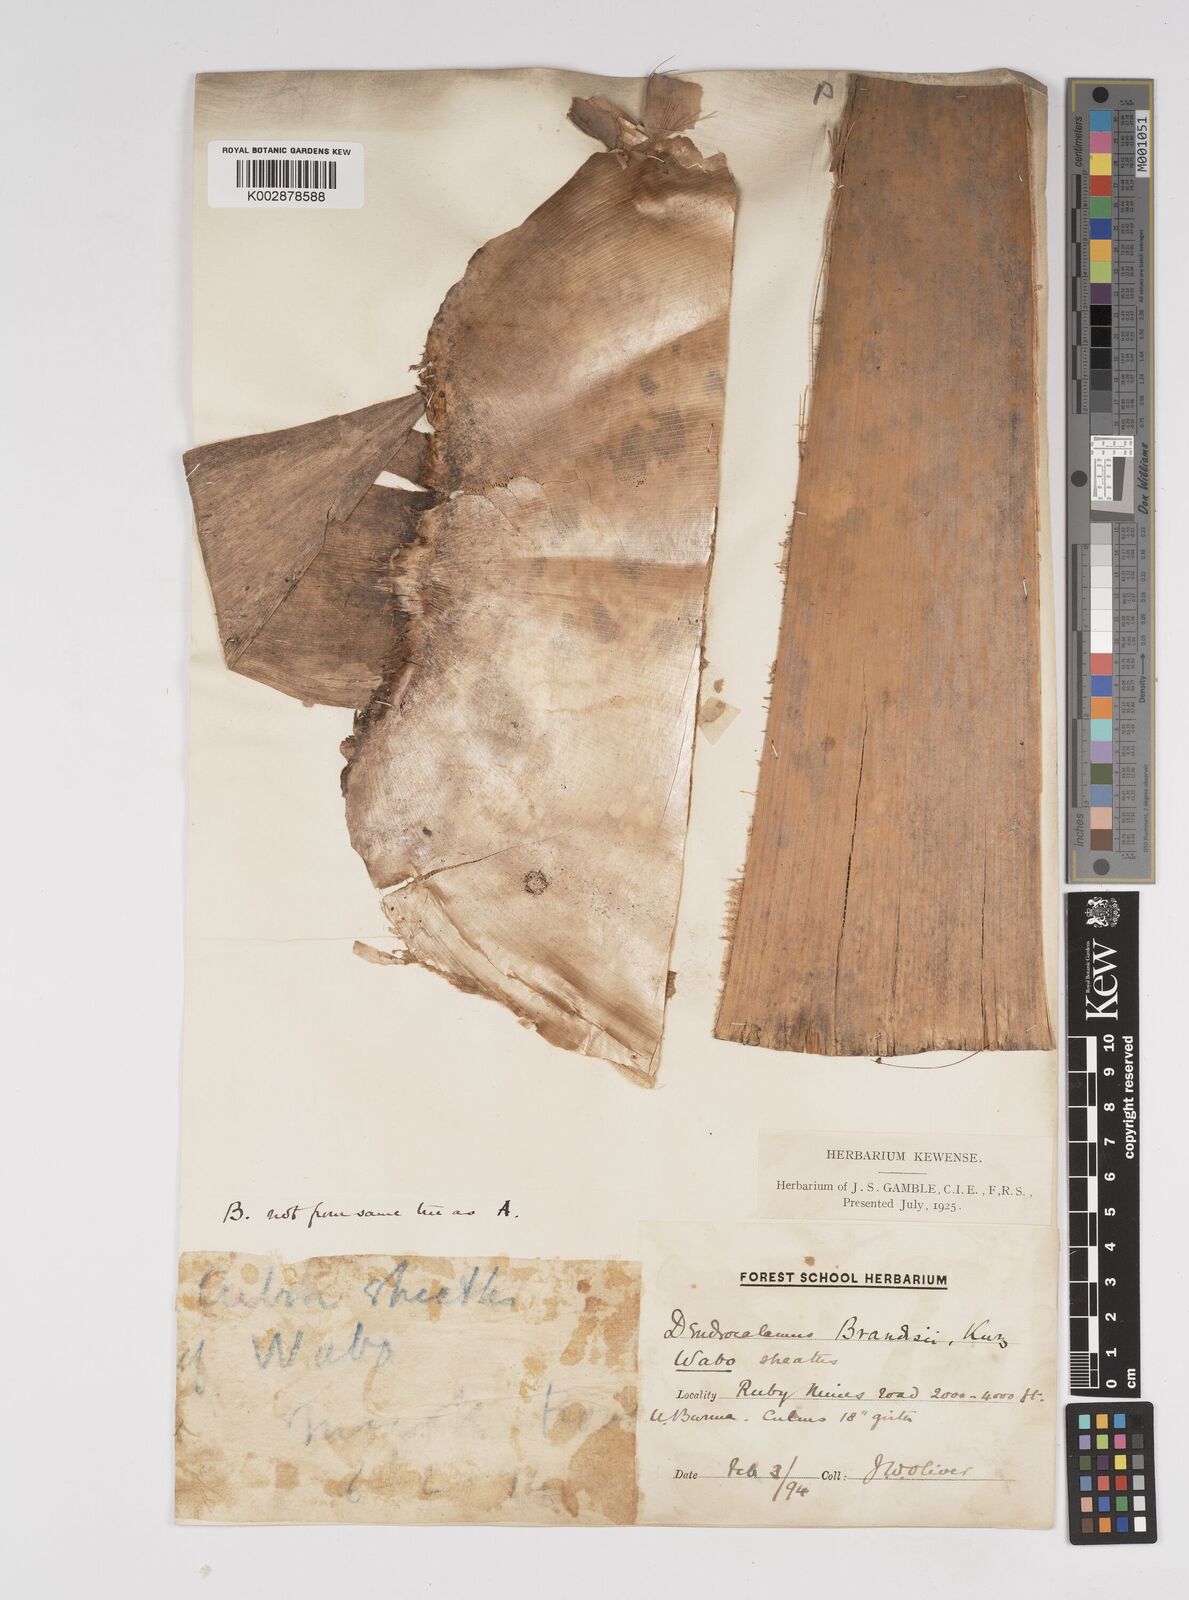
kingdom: Plantae
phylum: Tracheophyta
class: Liliopsida
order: Poales
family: Poaceae
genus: Dendrocalamus
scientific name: Dendrocalamus brandisii
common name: Velvetleaf bamboo
